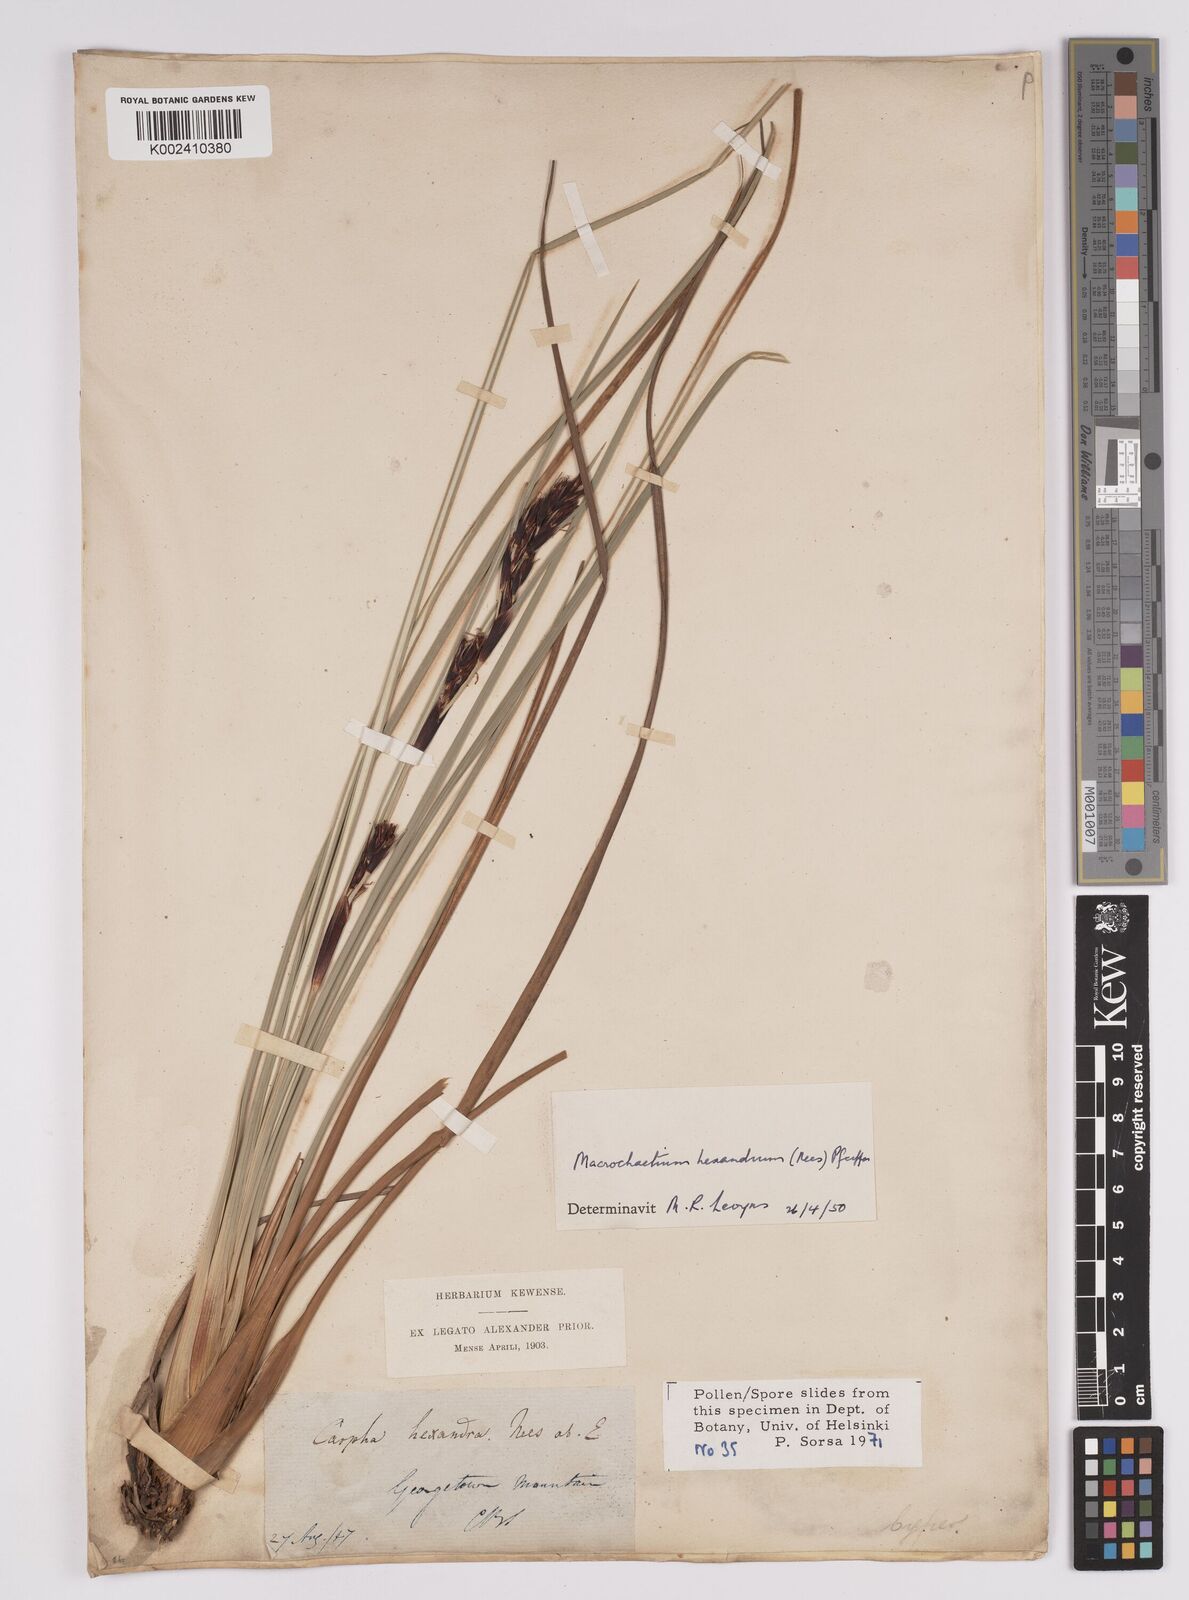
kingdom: Plantae
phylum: Tracheophyta
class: Liliopsida
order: Poales
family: Cyperaceae
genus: Cyathocoma
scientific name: Cyathocoma hexandra
